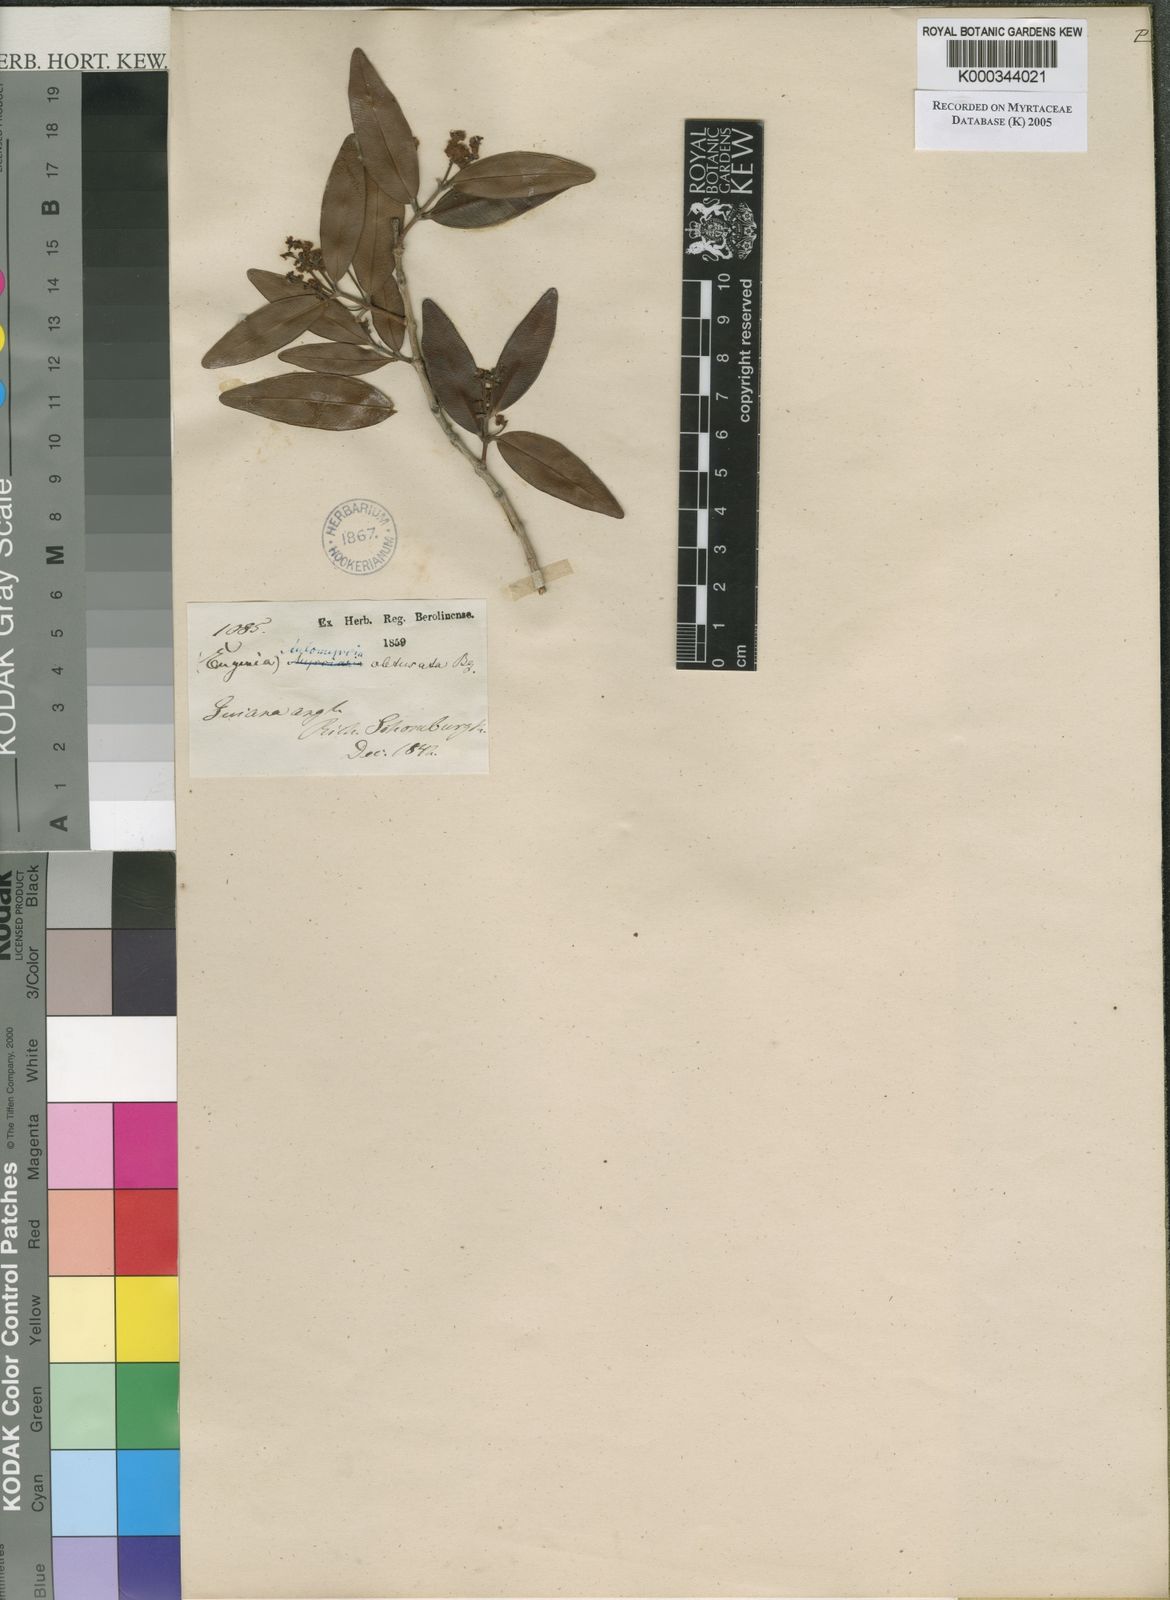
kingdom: Plantae
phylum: Tracheophyta
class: Magnoliopsida
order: Myrtales
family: Myrtaceae
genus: Myrcia
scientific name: Myrcia Aulomyrcia obtusata
